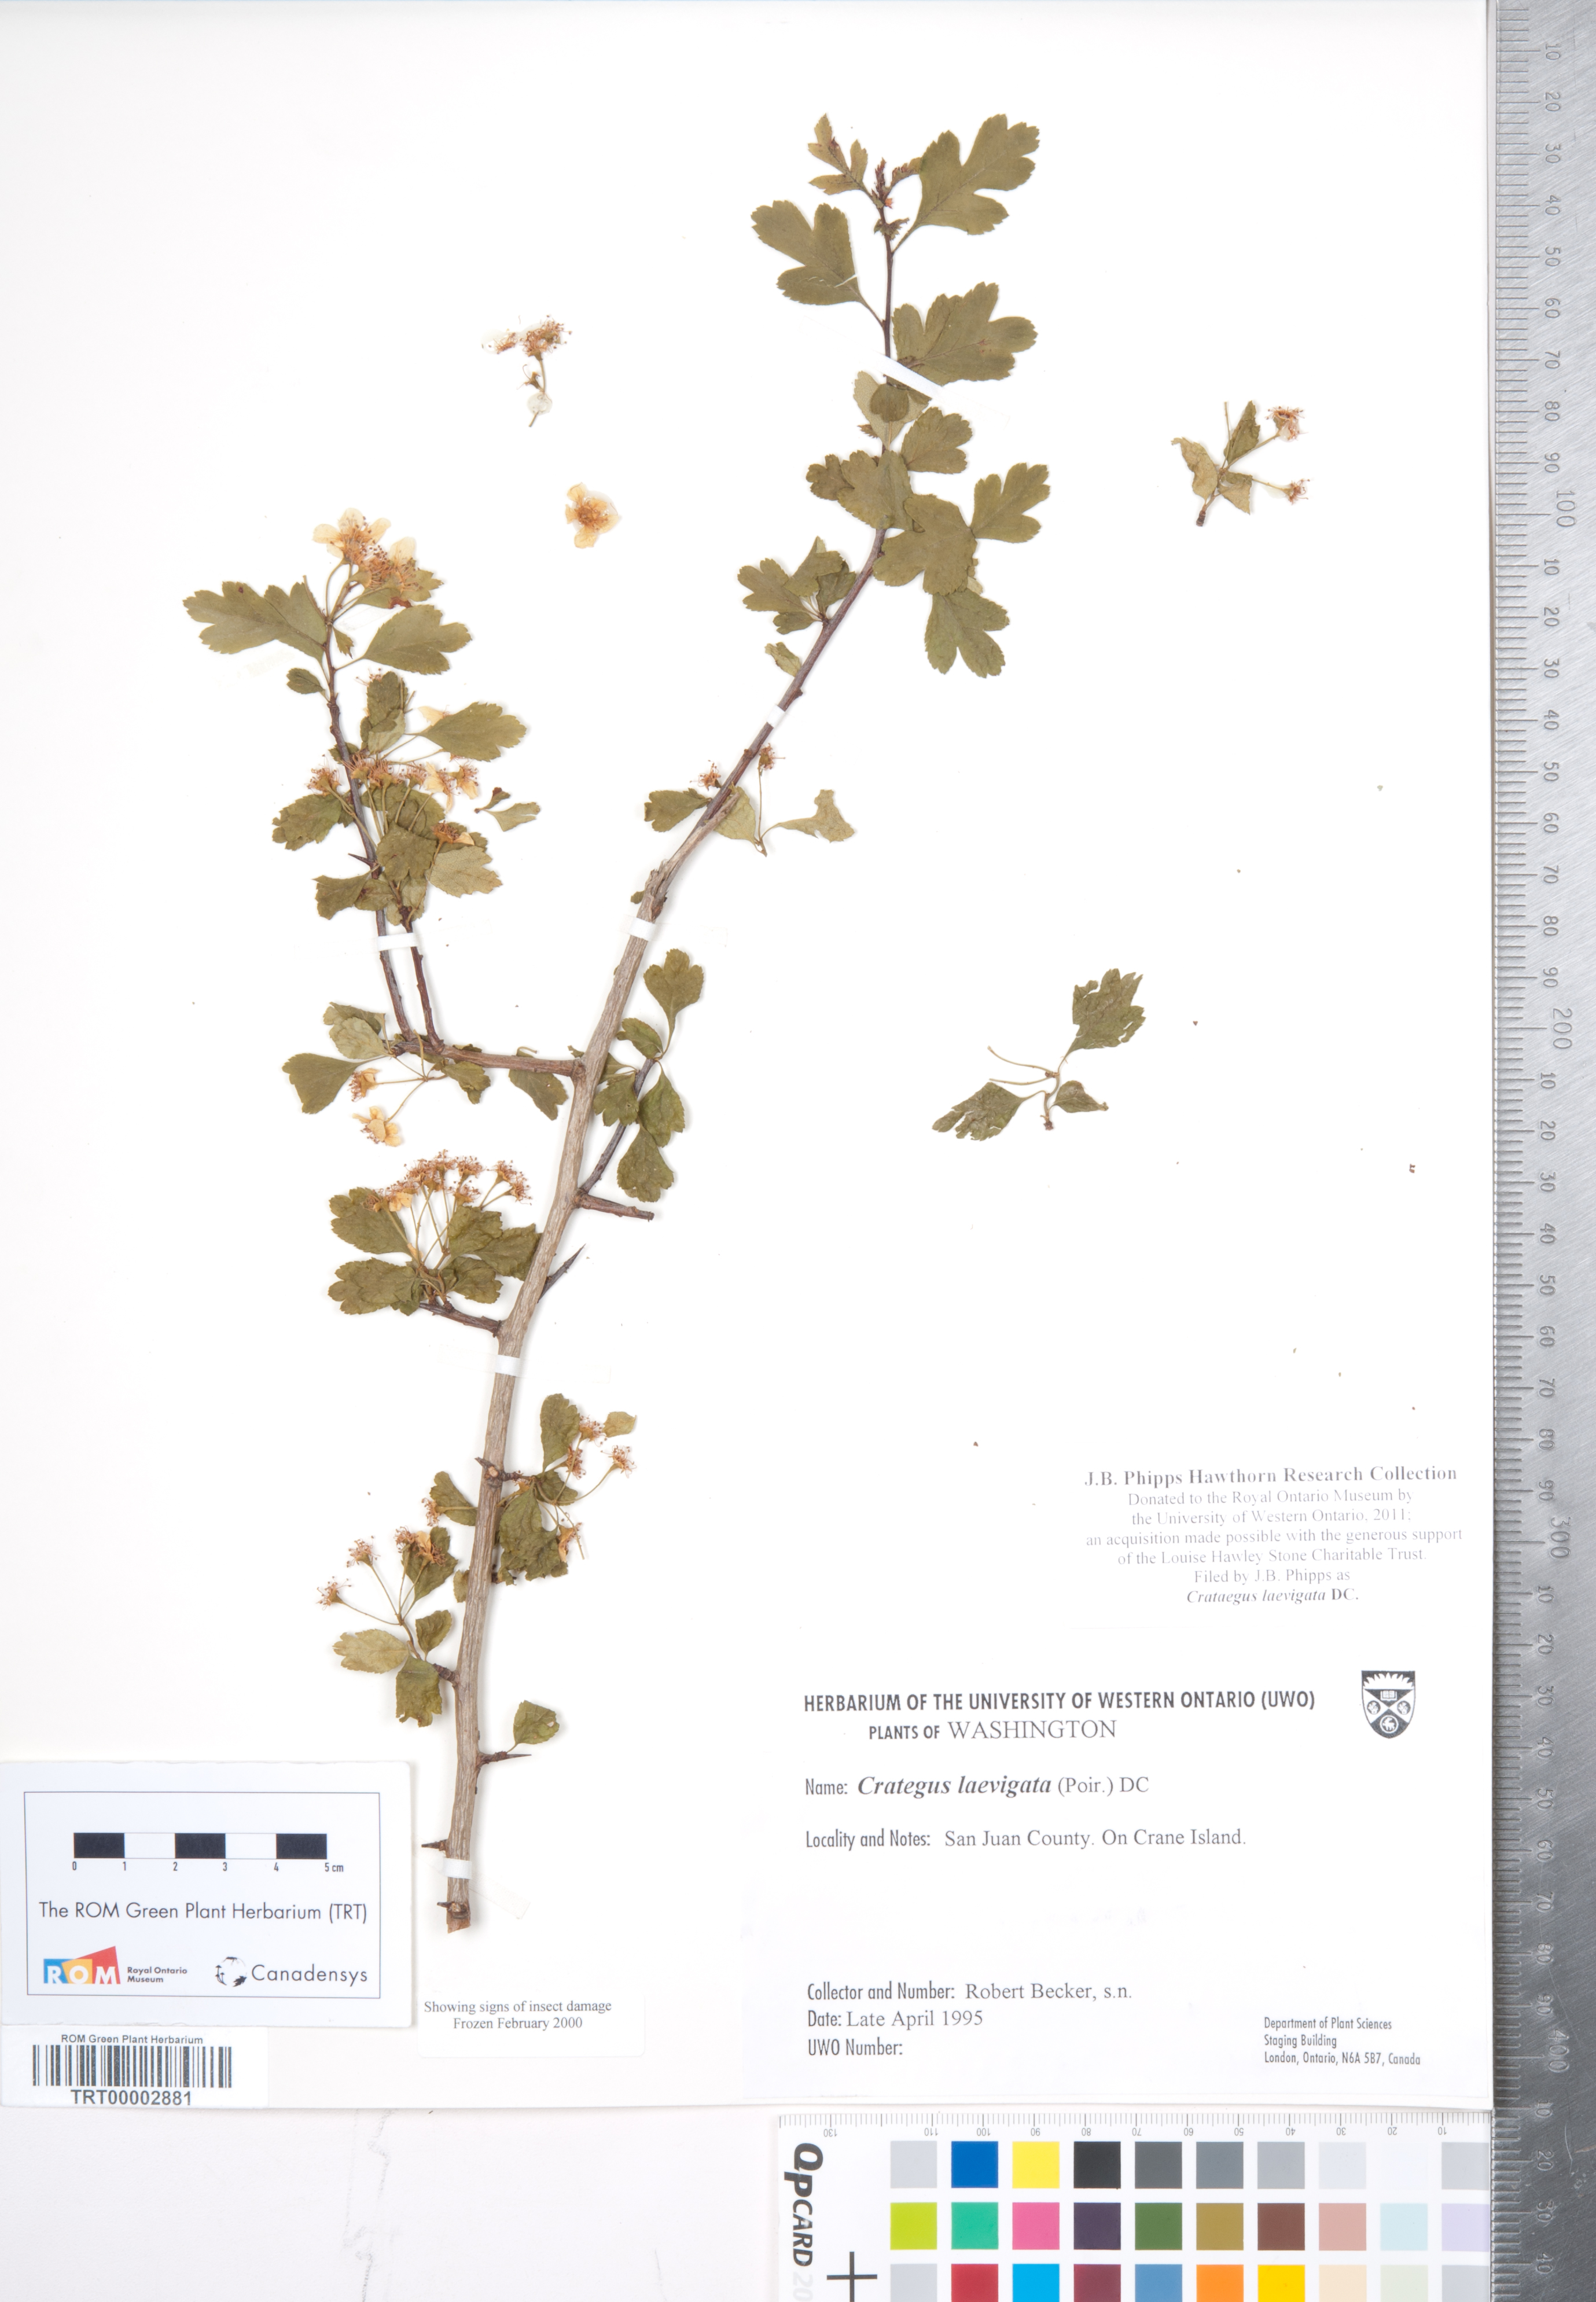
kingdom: Plantae
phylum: Tracheophyta
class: Magnoliopsida
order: Rosales
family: Rosaceae
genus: Crataegus
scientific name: Crataegus laevigata
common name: Midland hawthorn
